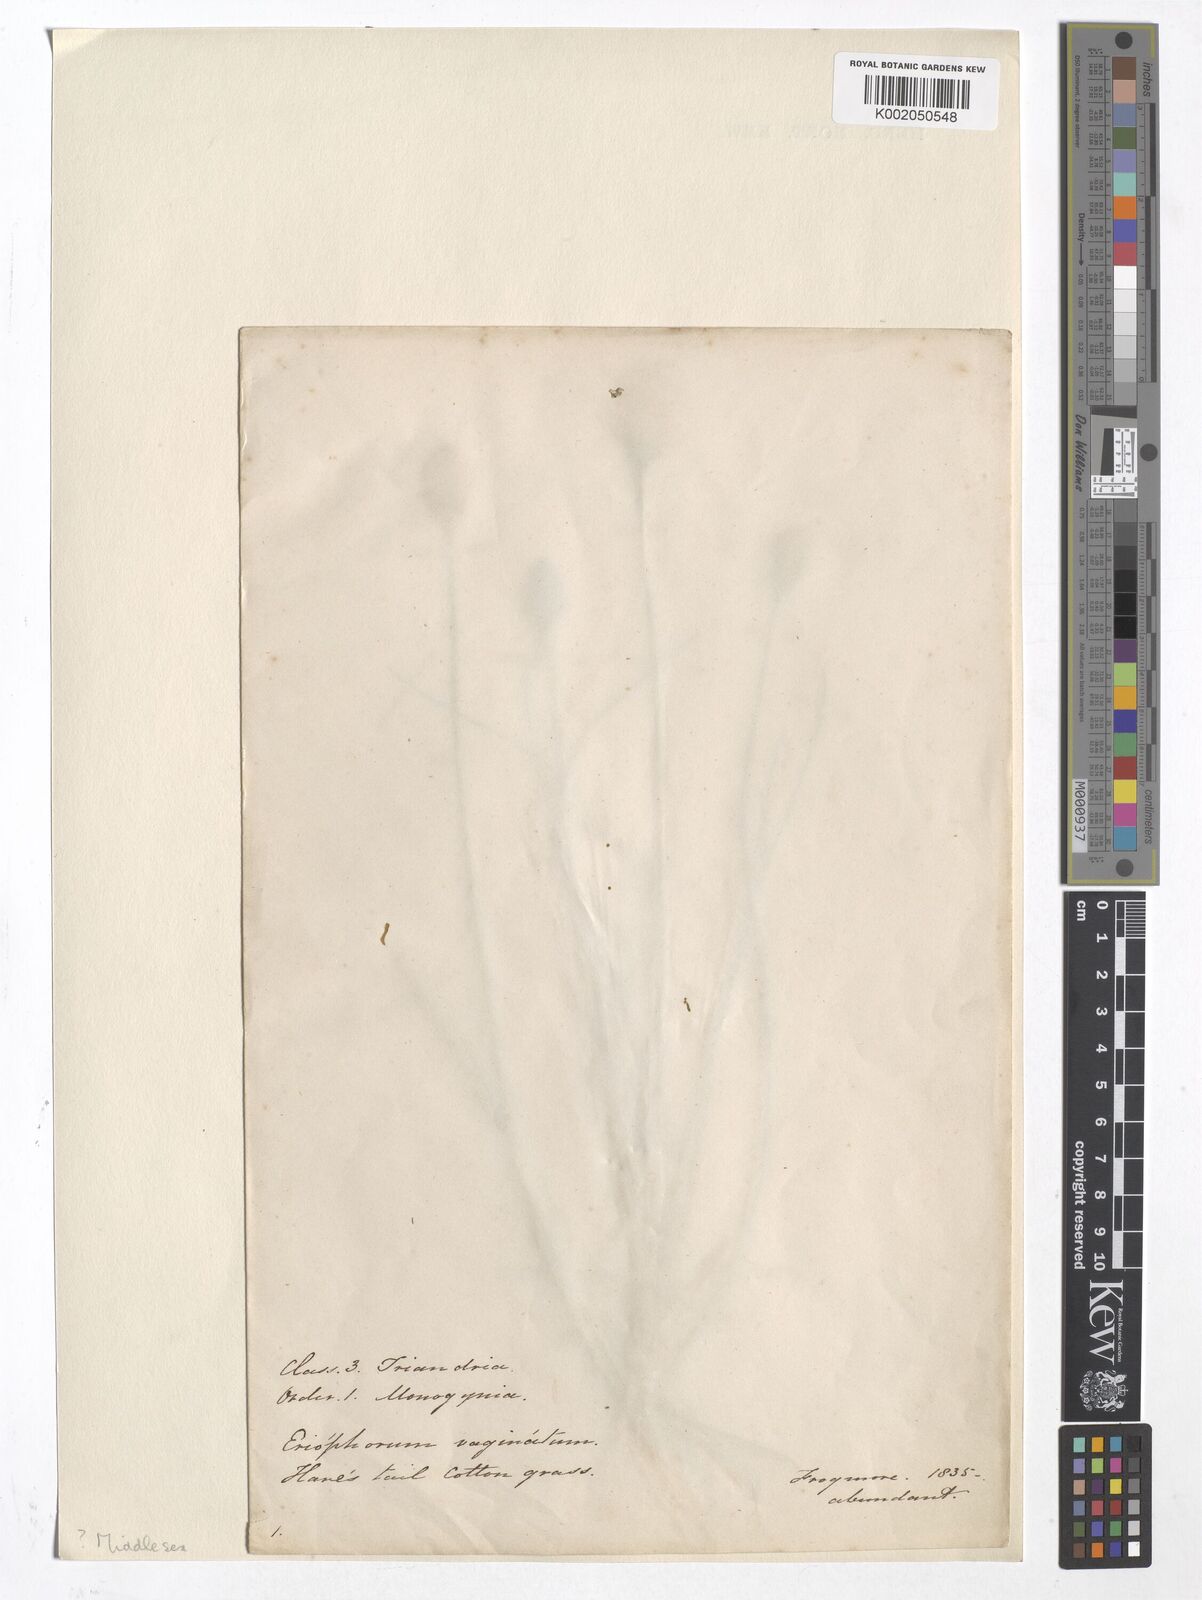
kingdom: Plantae
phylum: Tracheophyta
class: Liliopsida
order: Poales
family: Cyperaceae
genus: Eriophorum
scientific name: Eriophorum vaginatum
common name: Hare's-tail cottongrass
